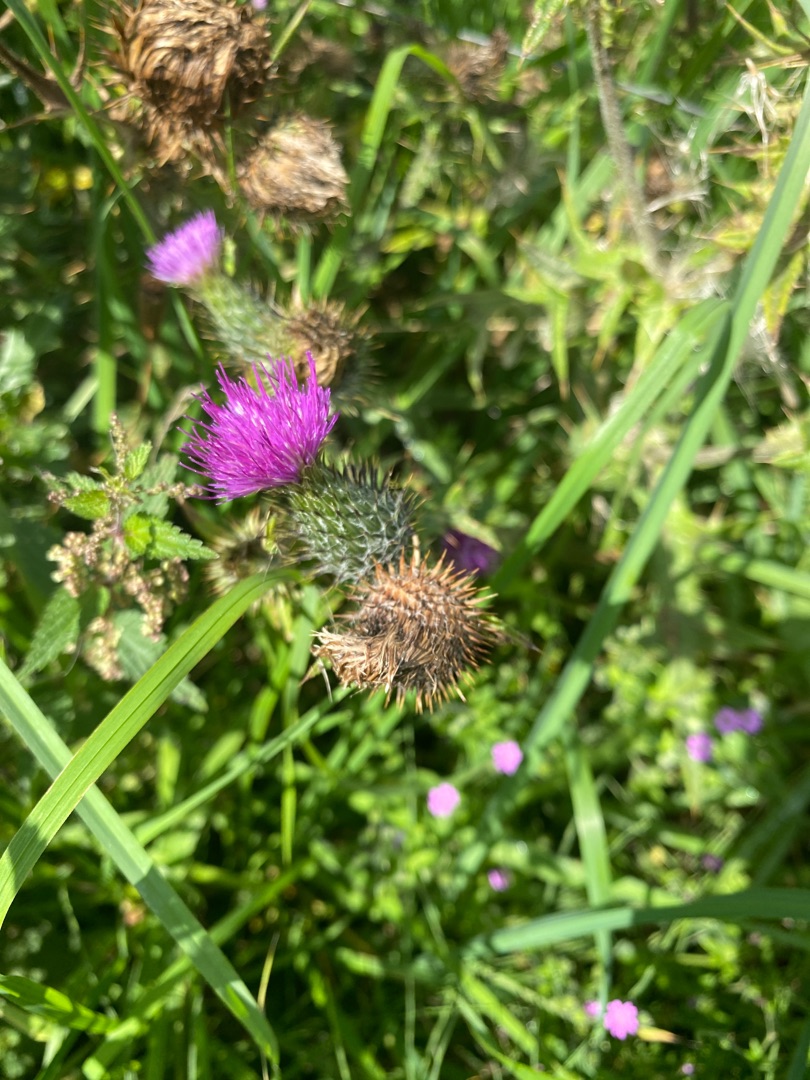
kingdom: Plantae
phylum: Tracheophyta
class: Magnoliopsida
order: Asterales
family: Asteraceae
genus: Cirsium
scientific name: Cirsium vulgare
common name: Horse-tidsel
